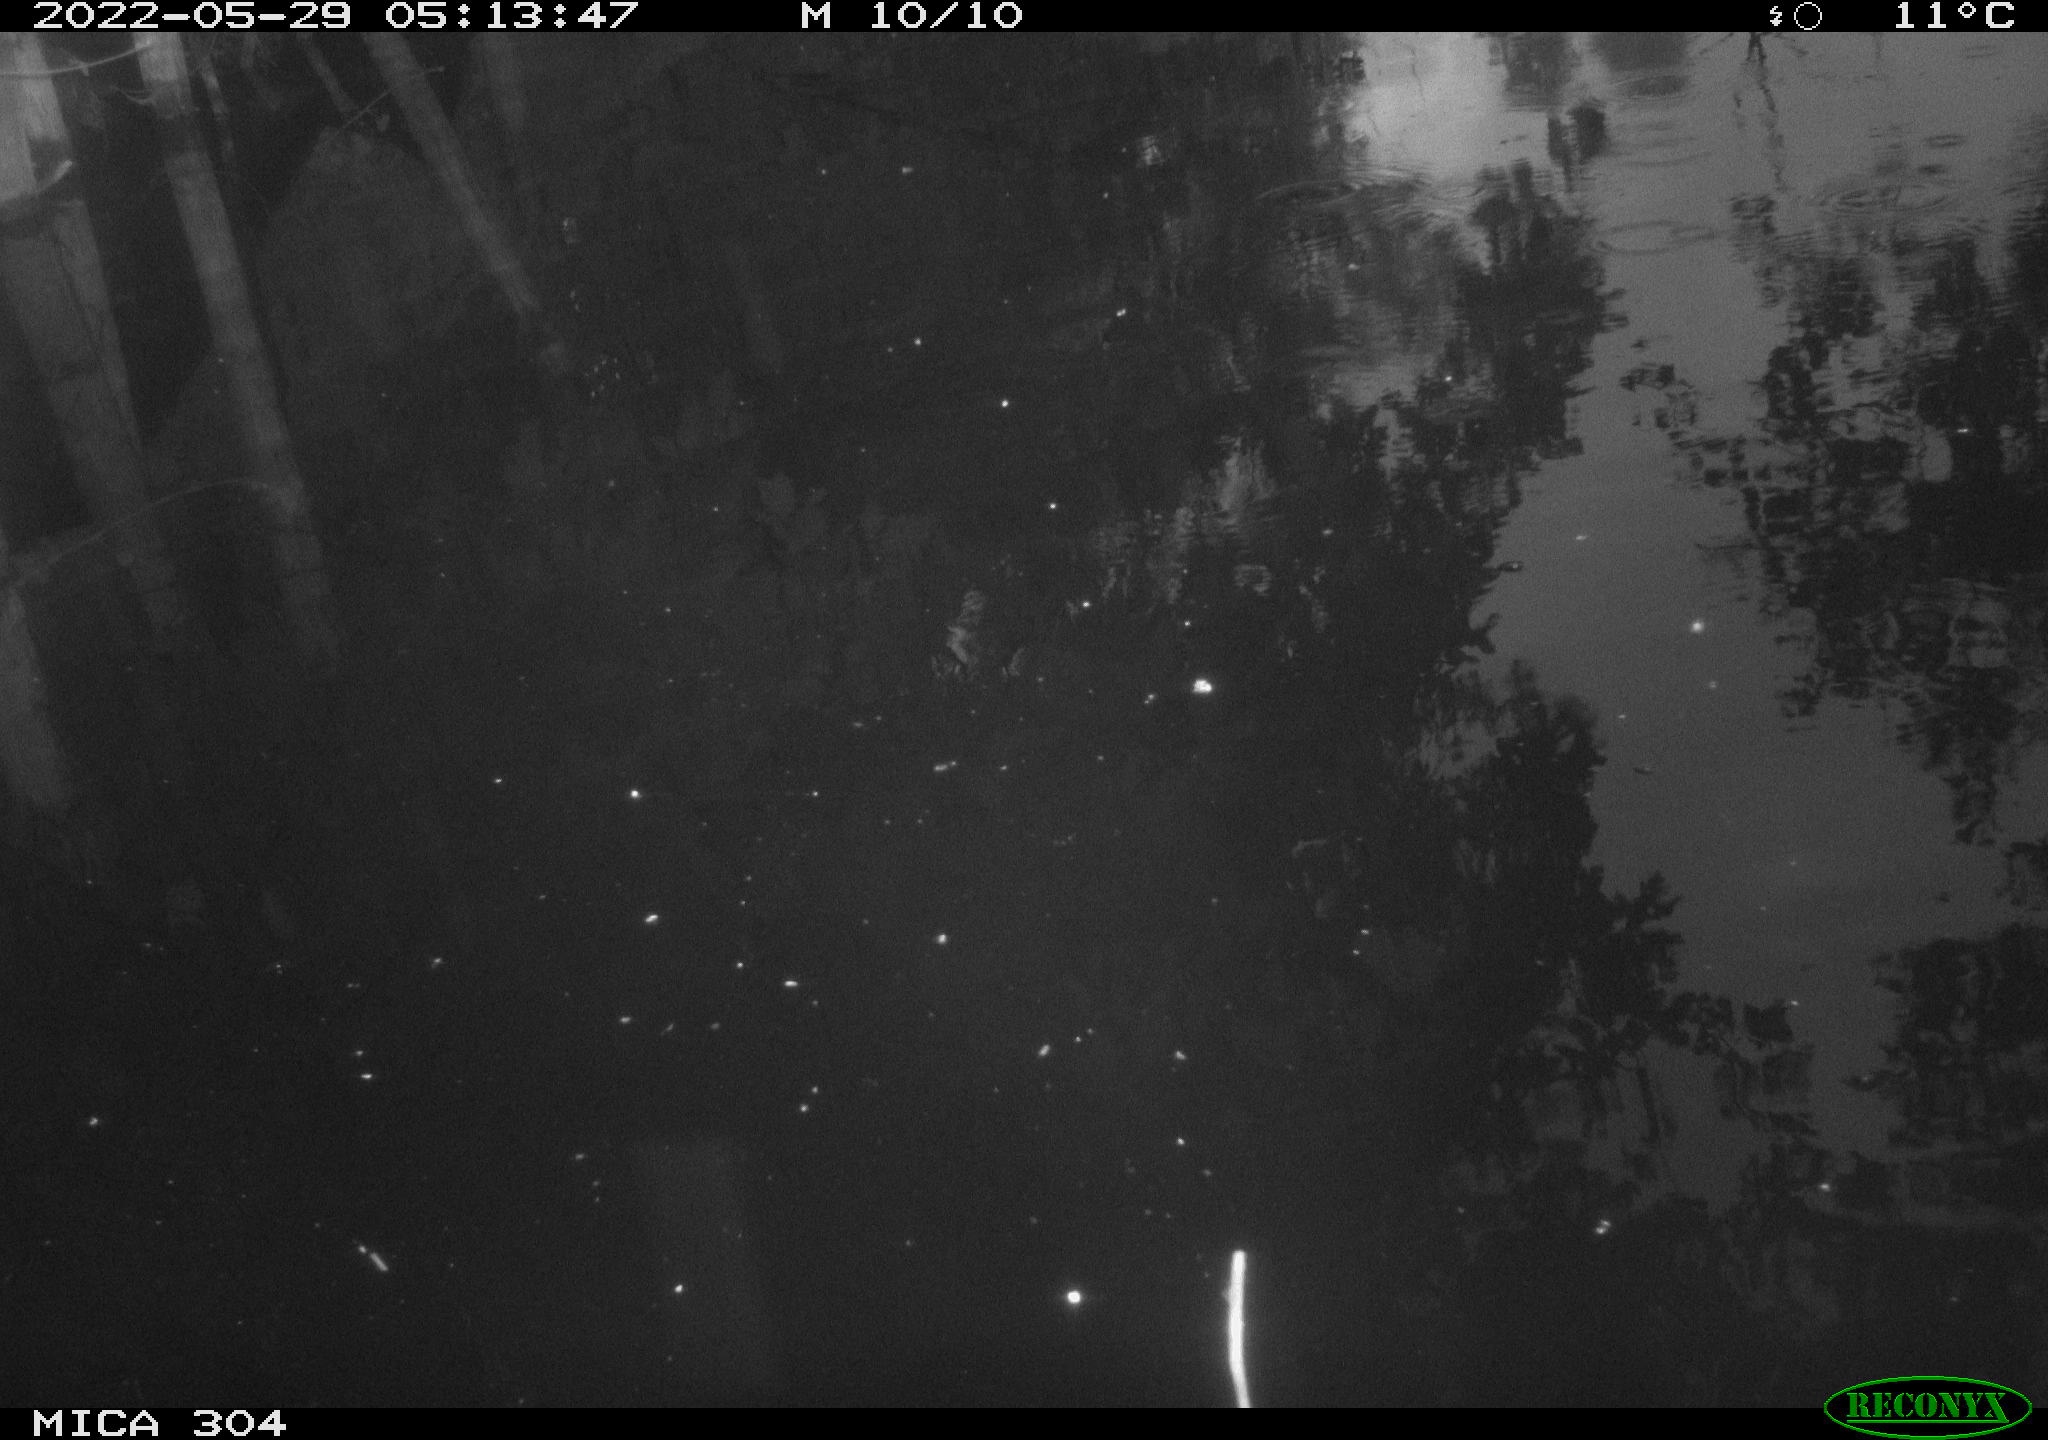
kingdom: Animalia
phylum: Chordata
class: Aves
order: Gruiformes
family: Rallidae
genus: Fulica
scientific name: Fulica atra
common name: Eurasian coot
